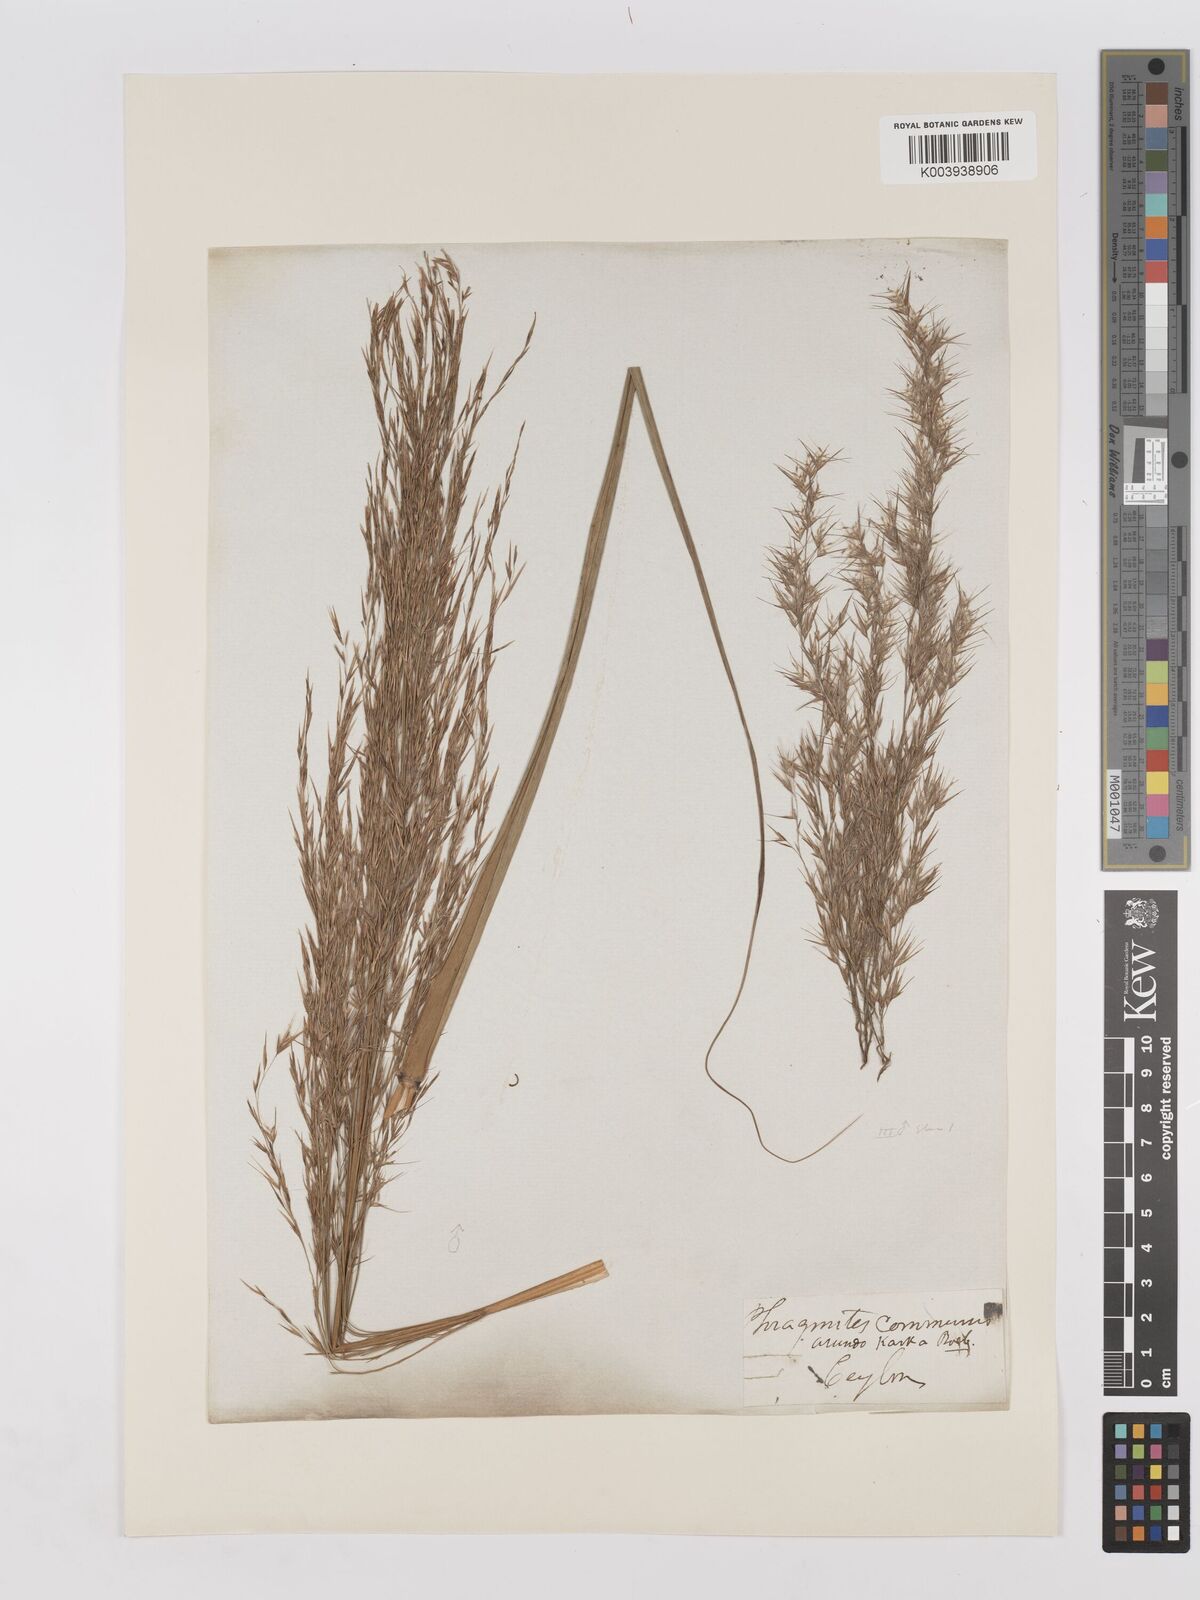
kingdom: Plantae
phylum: Tracheophyta
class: Liliopsida
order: Poales
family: Poaceae
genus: Phragmites
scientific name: Phragmites karka
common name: Tropical reed
